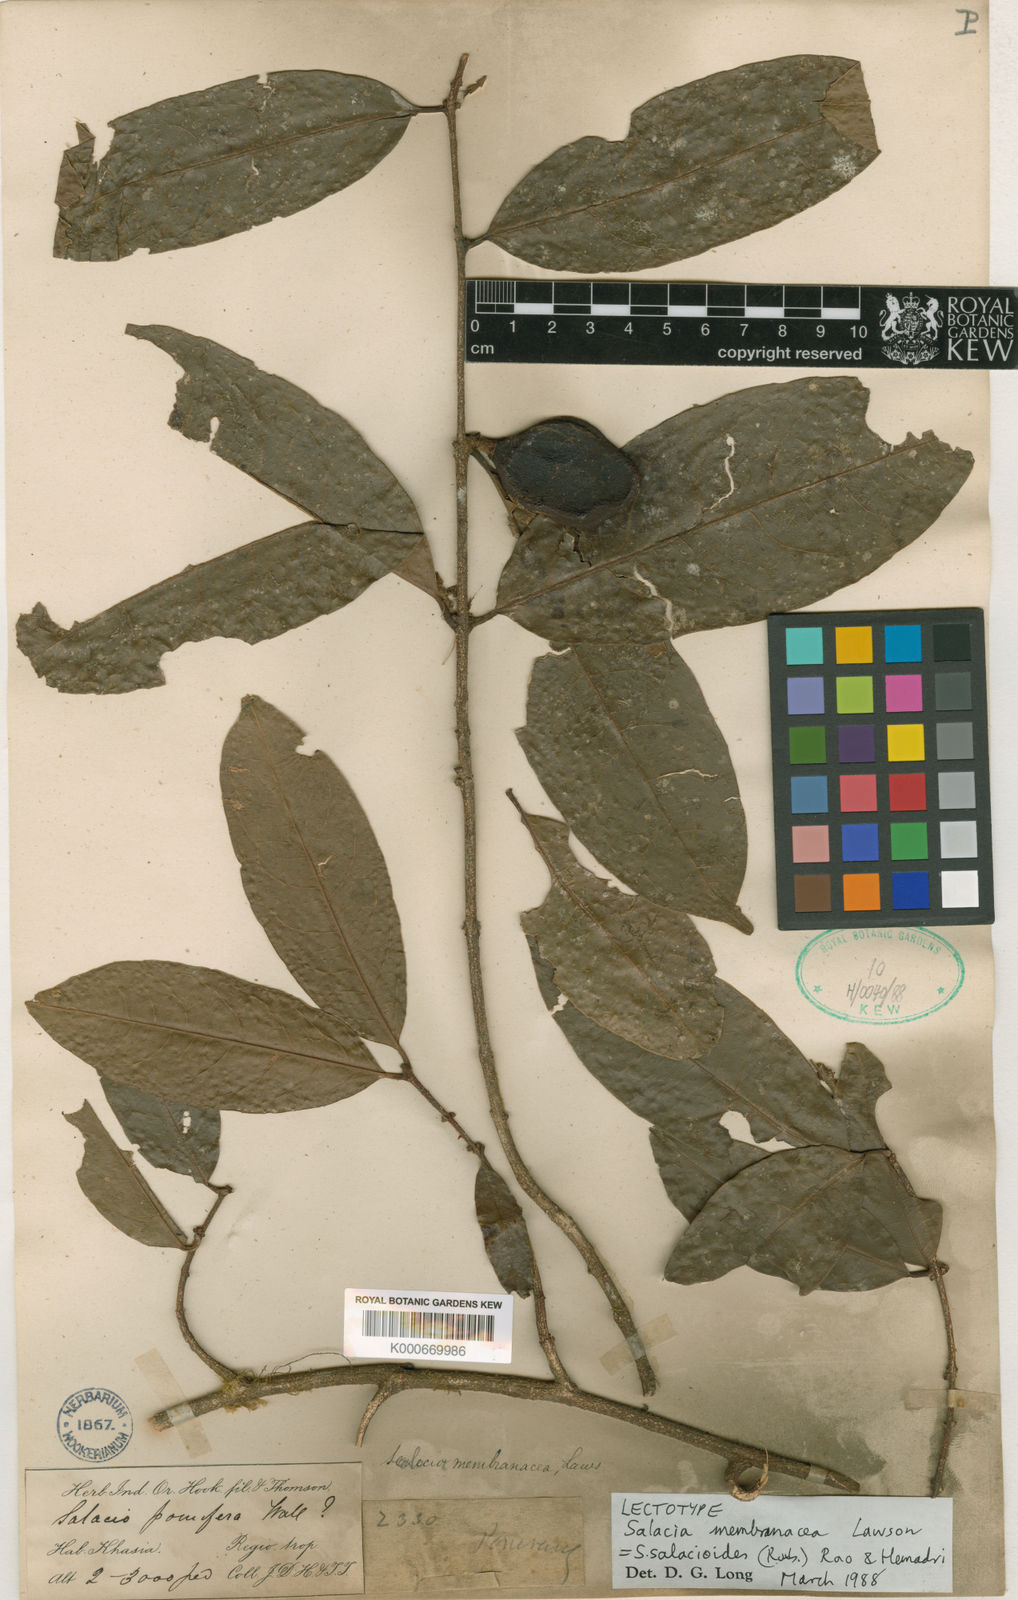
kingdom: Plantae
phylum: Tracheophyta
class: Magnoliopsida
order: Celastrales
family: Celastraceae
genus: Salacia
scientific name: Salacia salacioides
